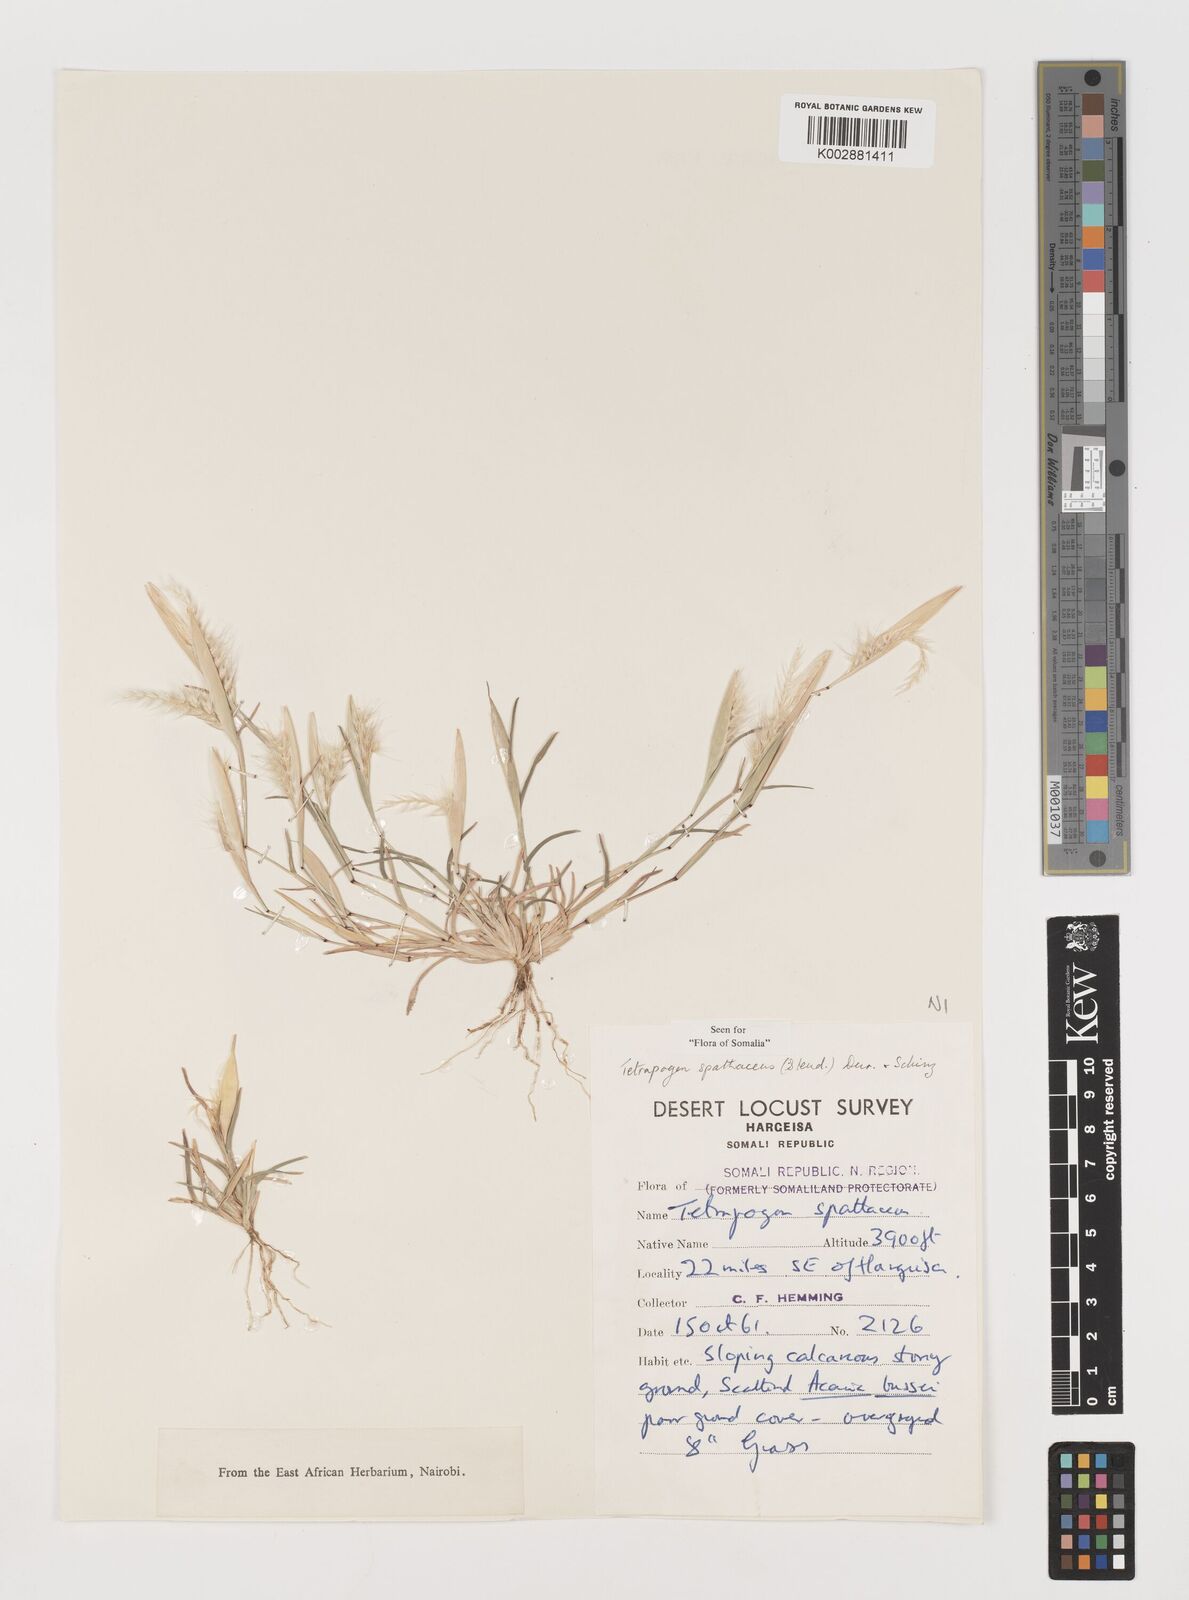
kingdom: Plantae
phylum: Tracheophyta
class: Liliopsida
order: Poales
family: Poaceae
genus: Tetrapogon
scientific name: Tetrapogon cenchriformis
